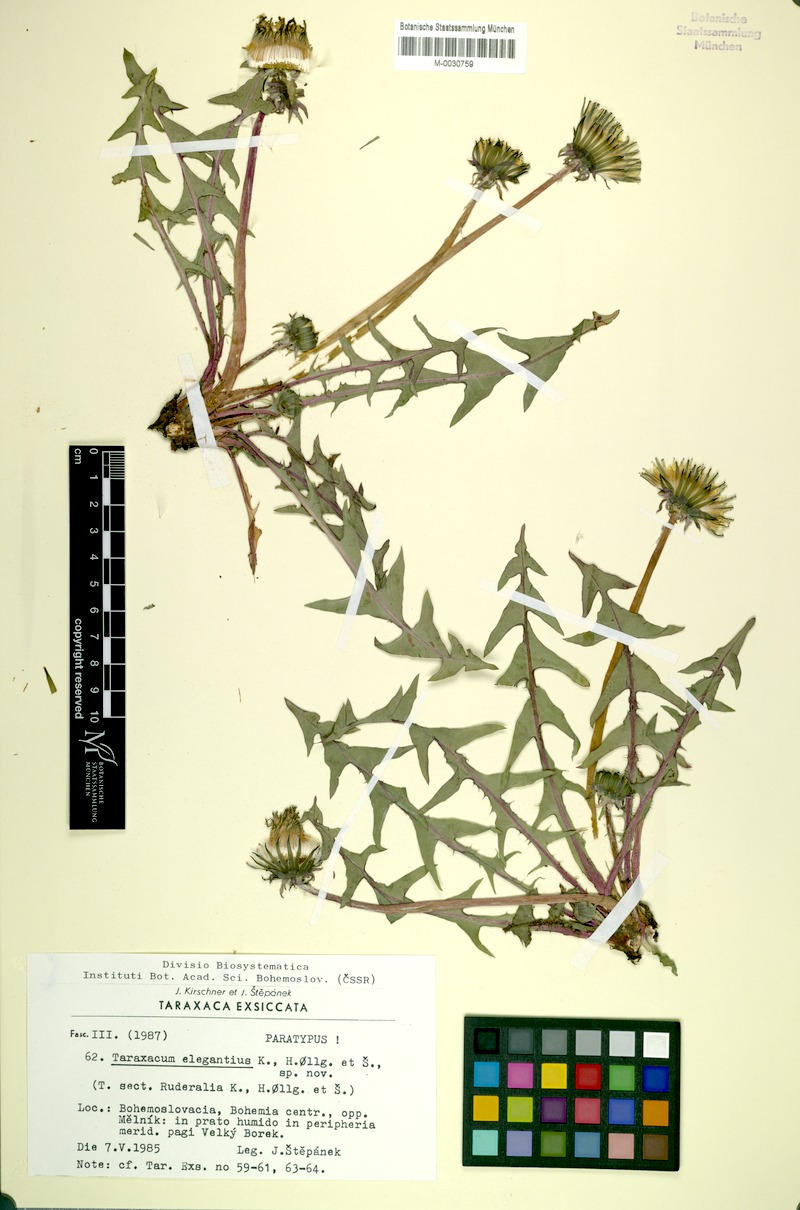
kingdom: Plantae
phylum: Tracheophyta
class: Magnoliopsida
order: Asterales
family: Asteraceae
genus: Taraxacum
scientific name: Taraxacum elegantius
